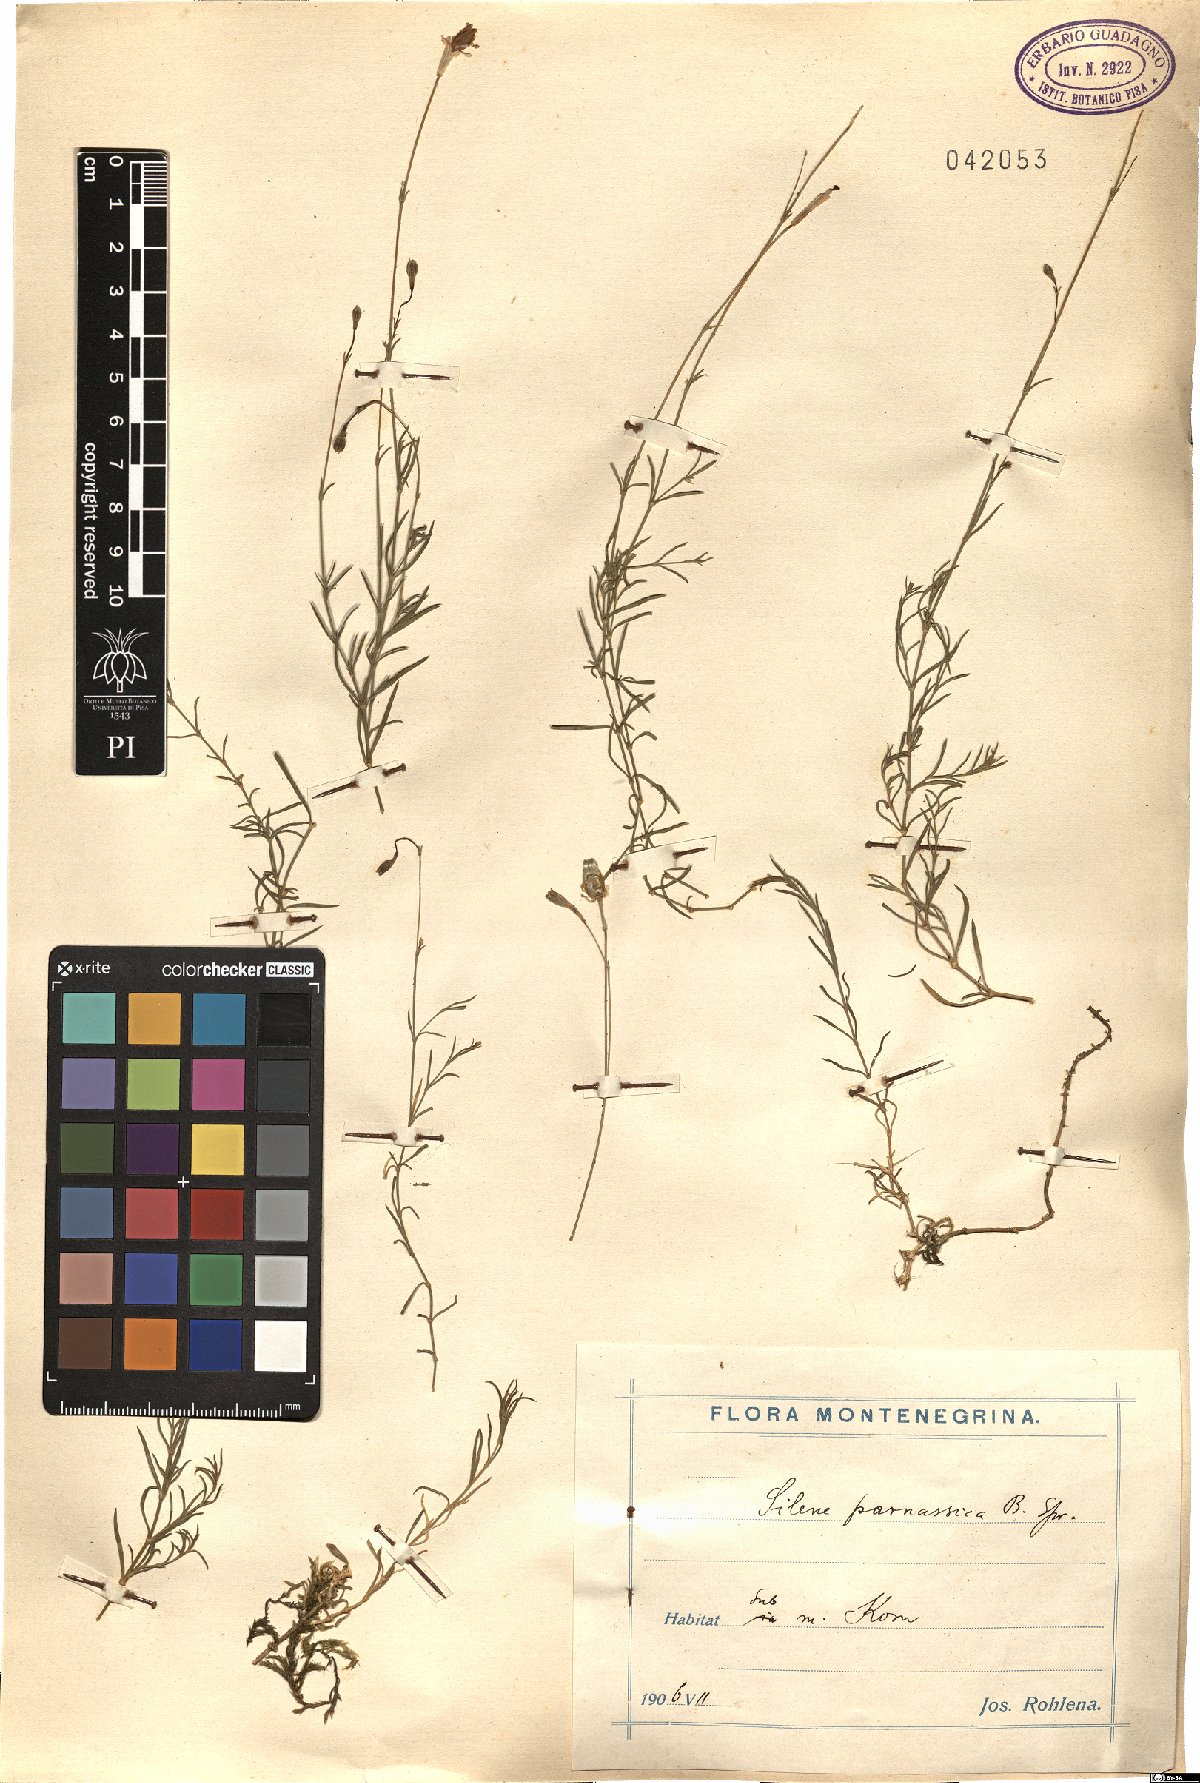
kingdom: Plantae
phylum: Tracheophyta
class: Magnoliopsida
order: Caryophyllales
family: Caryophyllaceae
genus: Silene
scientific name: Silene parnassica
